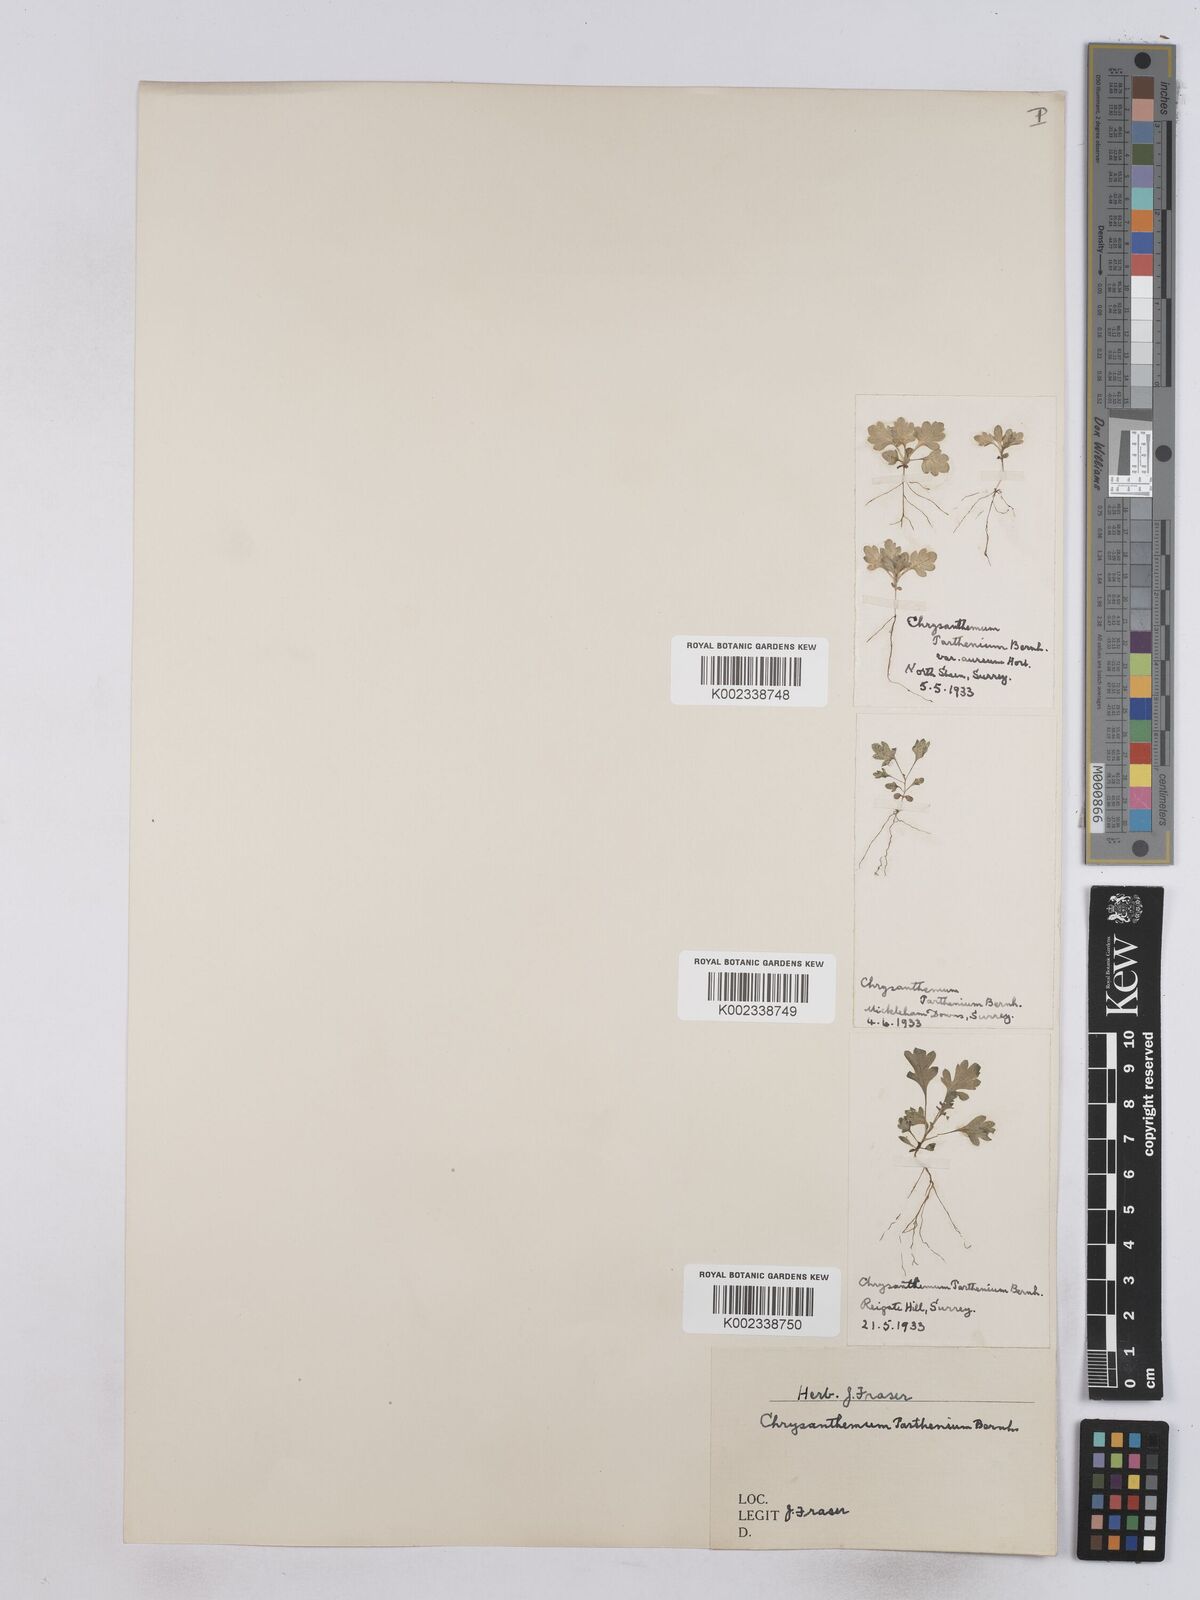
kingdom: Plantae
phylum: Tracheophyta
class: Magnoliopsida
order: Asterales
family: Asteraceae
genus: Tanacetum
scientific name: Tanacetum parthenium
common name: Feverfew
